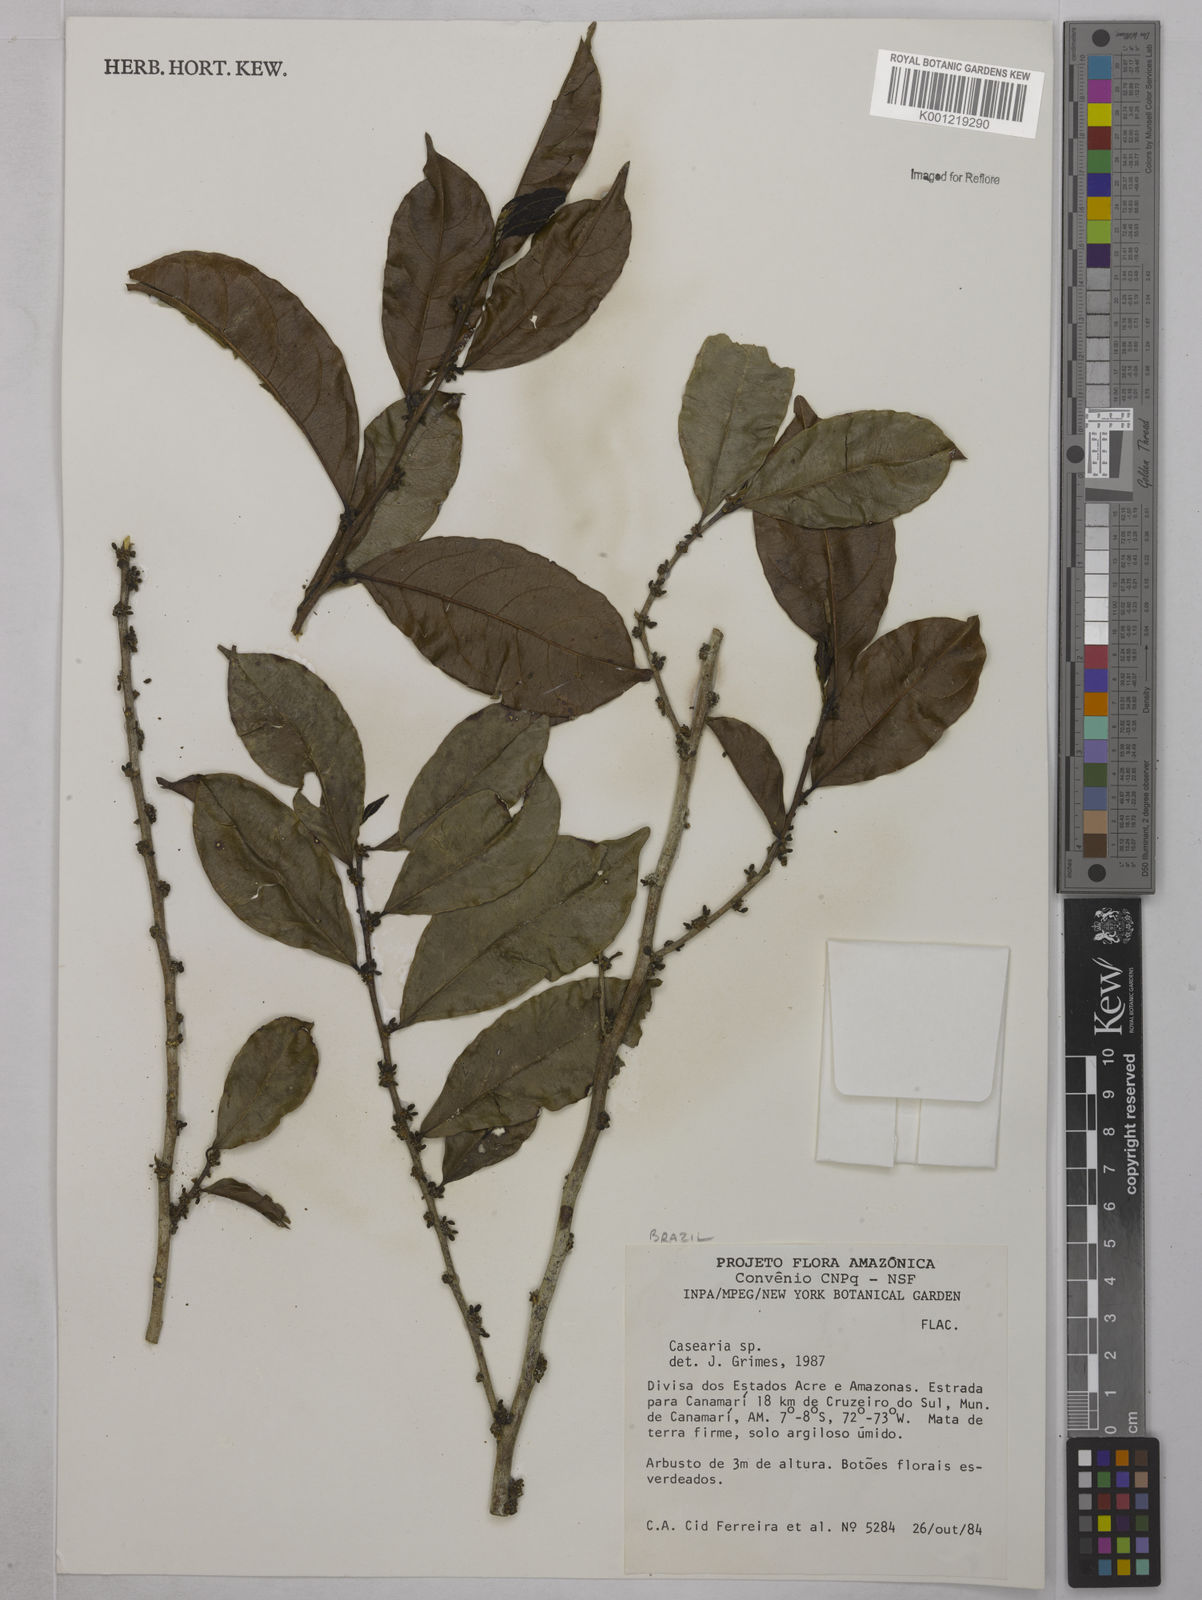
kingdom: Plantae
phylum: Tracheophyta
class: Magnoliopsida
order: Malpighiales
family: Salicaceae
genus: Casearia
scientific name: Casearia
